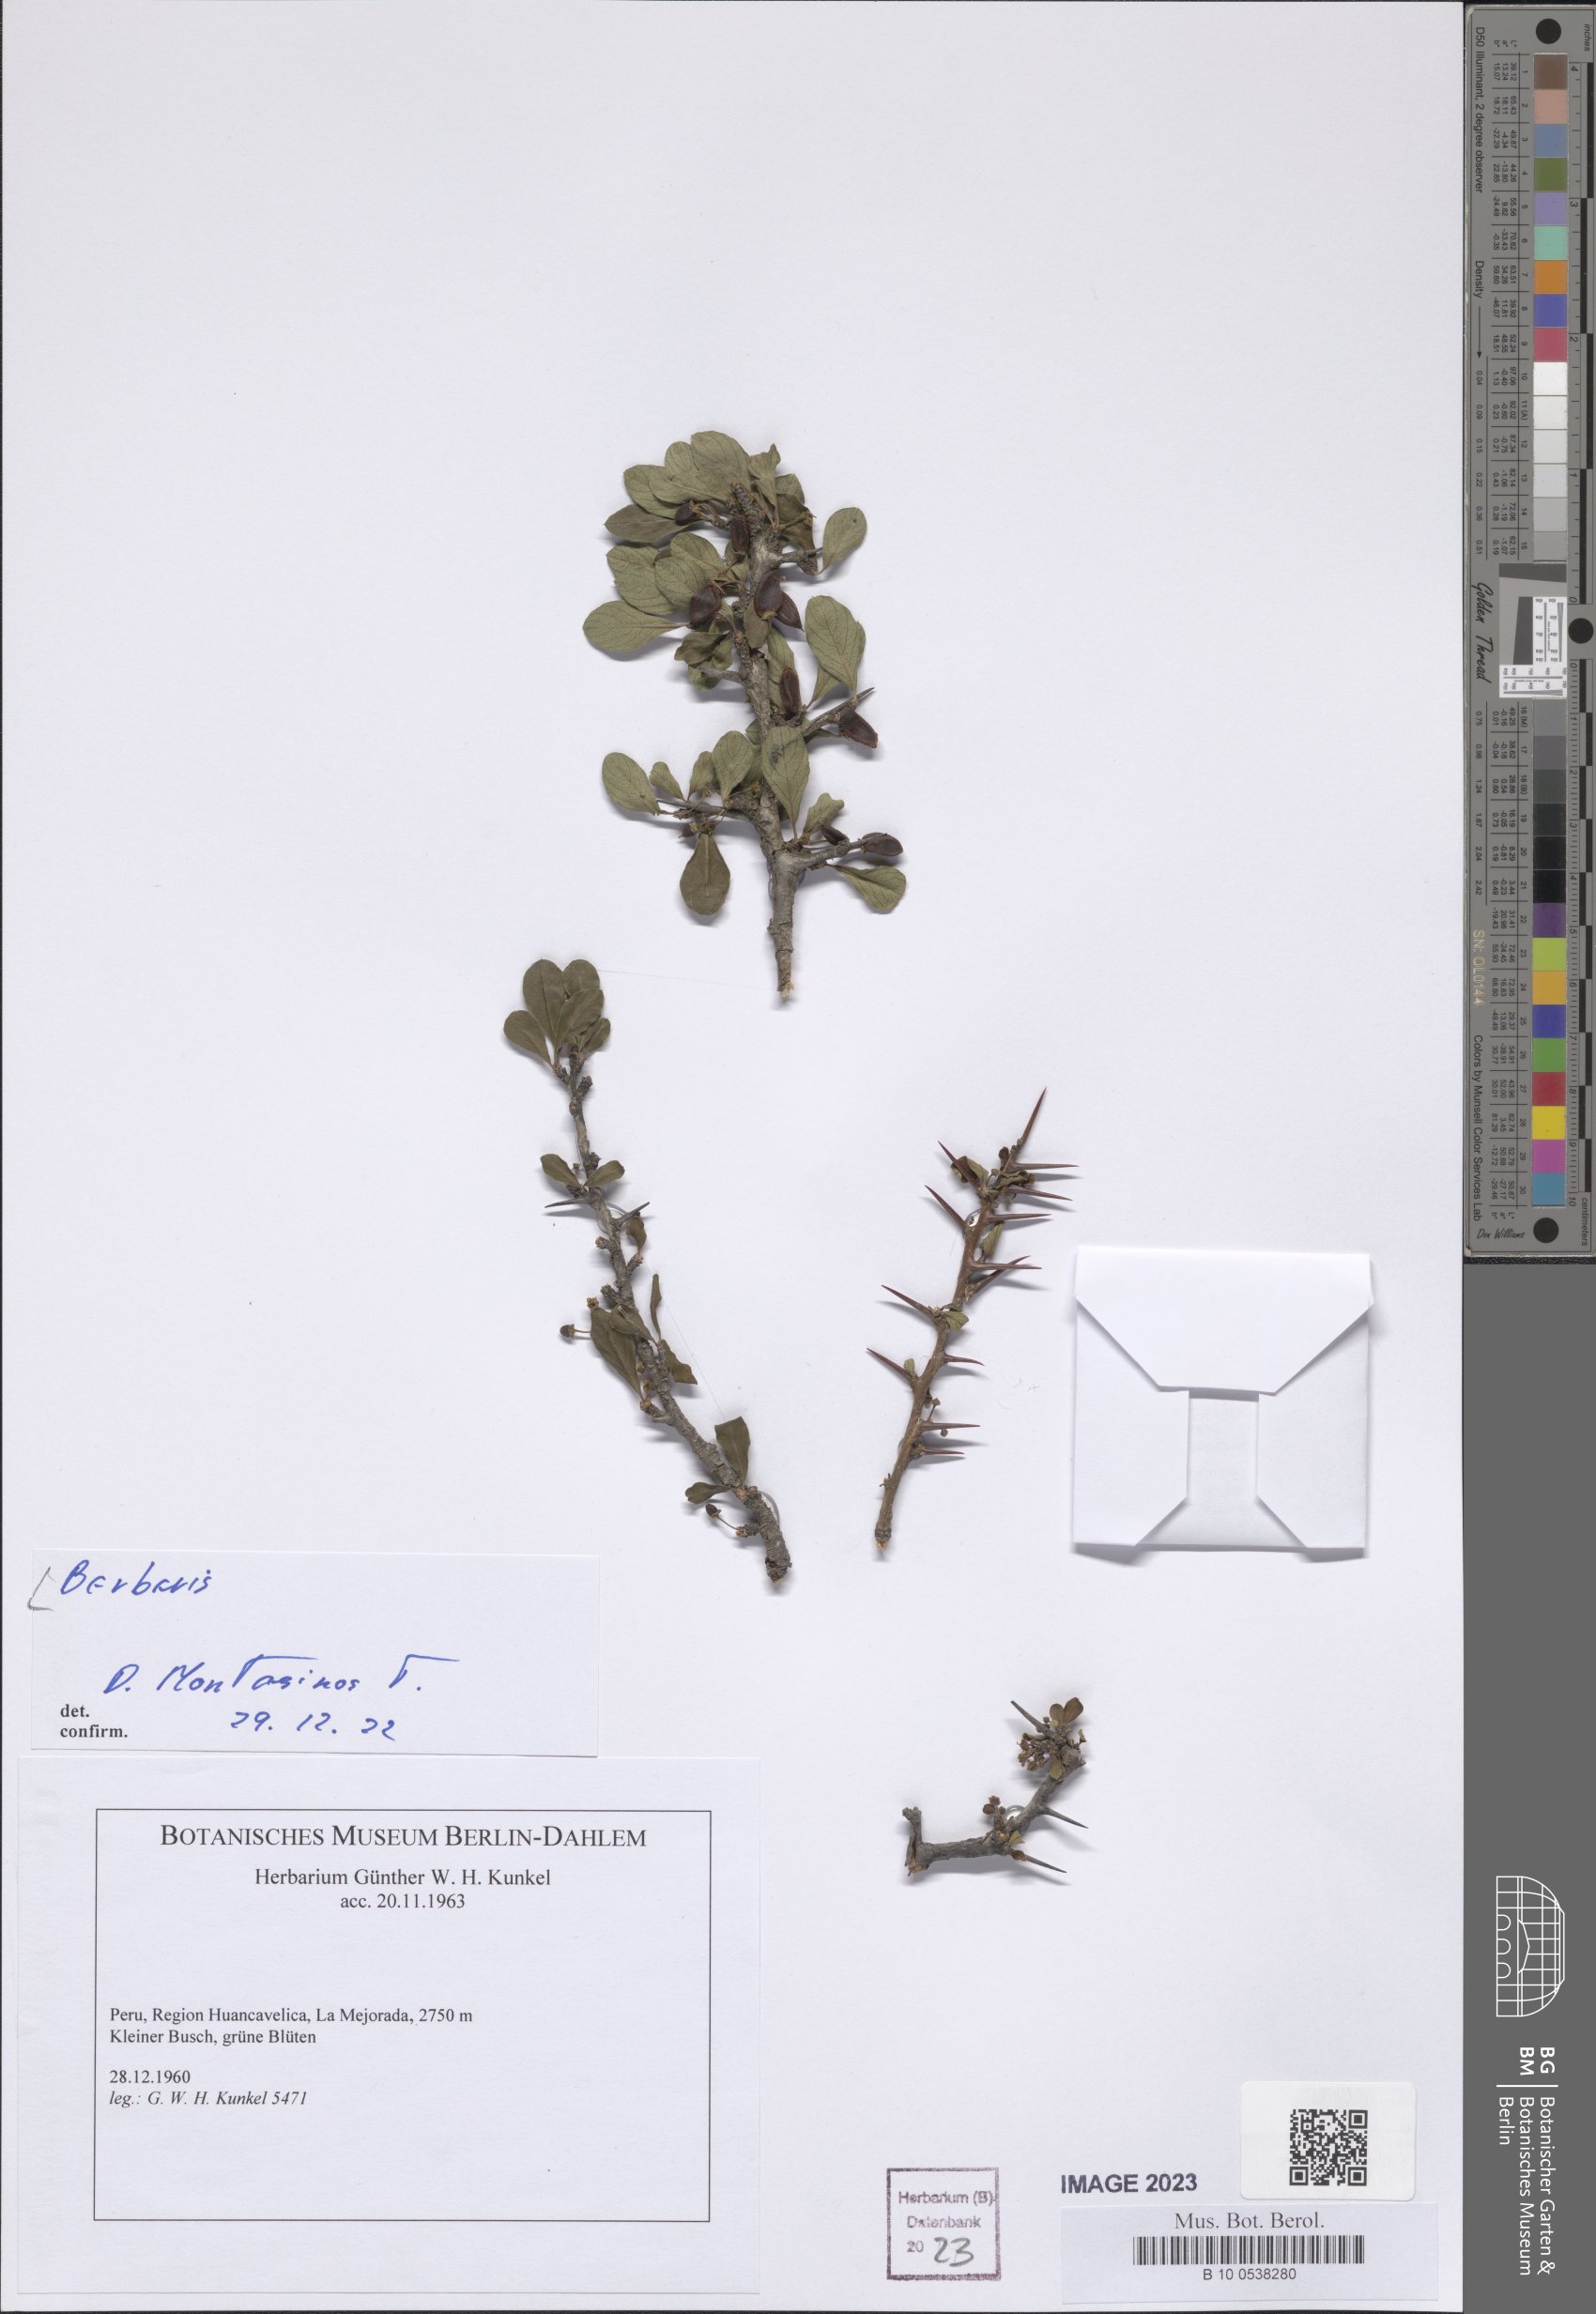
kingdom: Plantae
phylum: Tracheophyta
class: Magnoliopsida
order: Ranunculales
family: Berberidaceae
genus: Berberis
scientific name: Berberis
